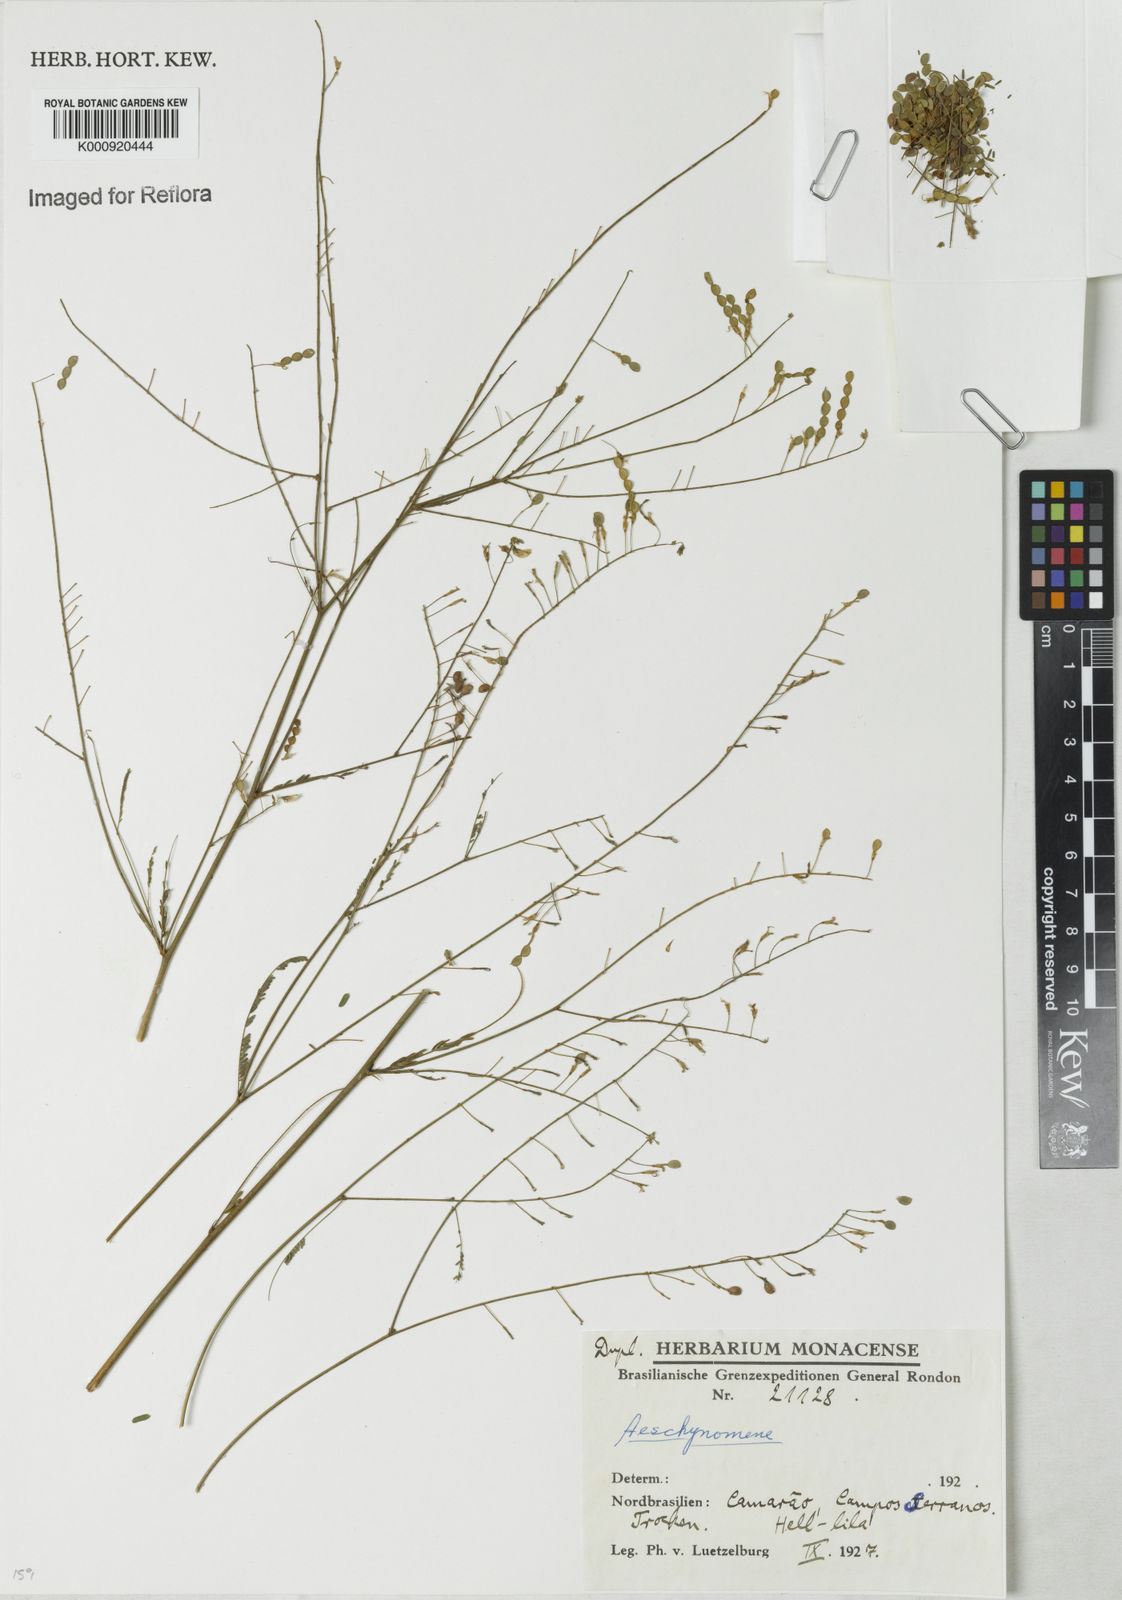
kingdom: Plantae
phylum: Tracheophyta
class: Magnoliopsida
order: Fabales
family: Fabaceae
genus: Aeschynomene
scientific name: Aeschynomene
